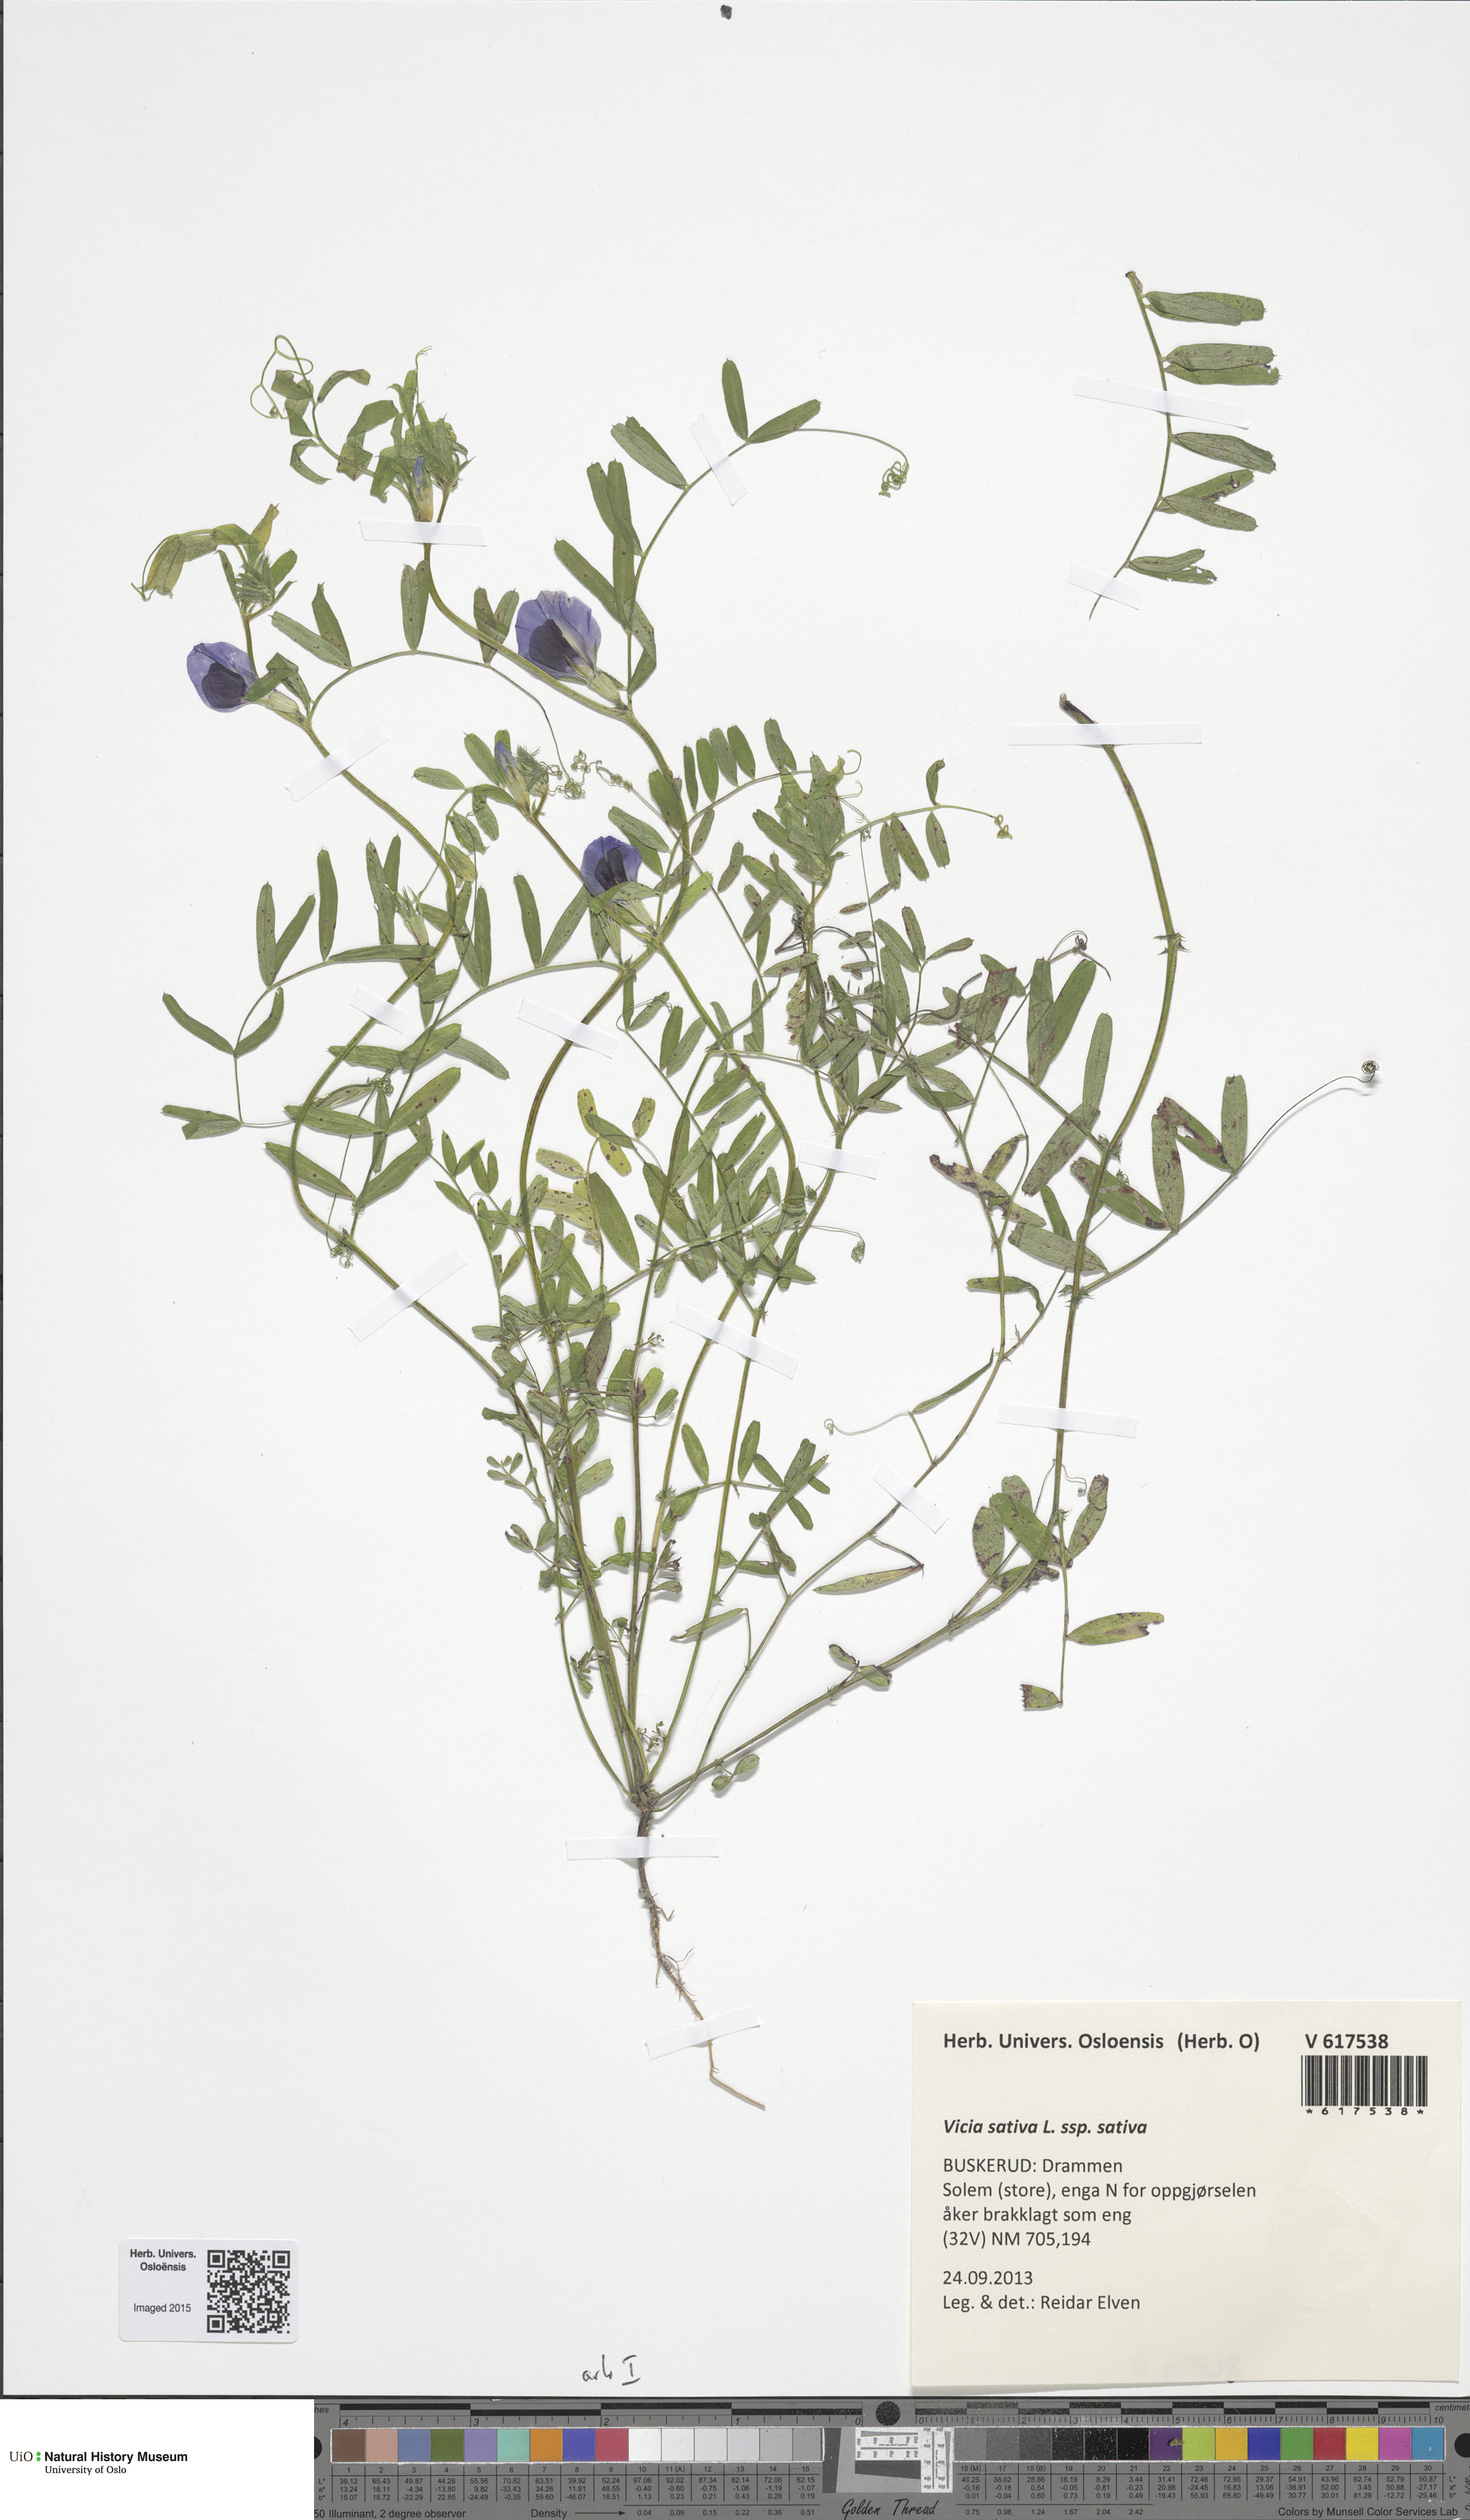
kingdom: Plantae
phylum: Tracheophyta
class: Magnoliopsida
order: Fabales
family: Fabaceae
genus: Vicia
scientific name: Vicia sativa
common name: Garden vetch
